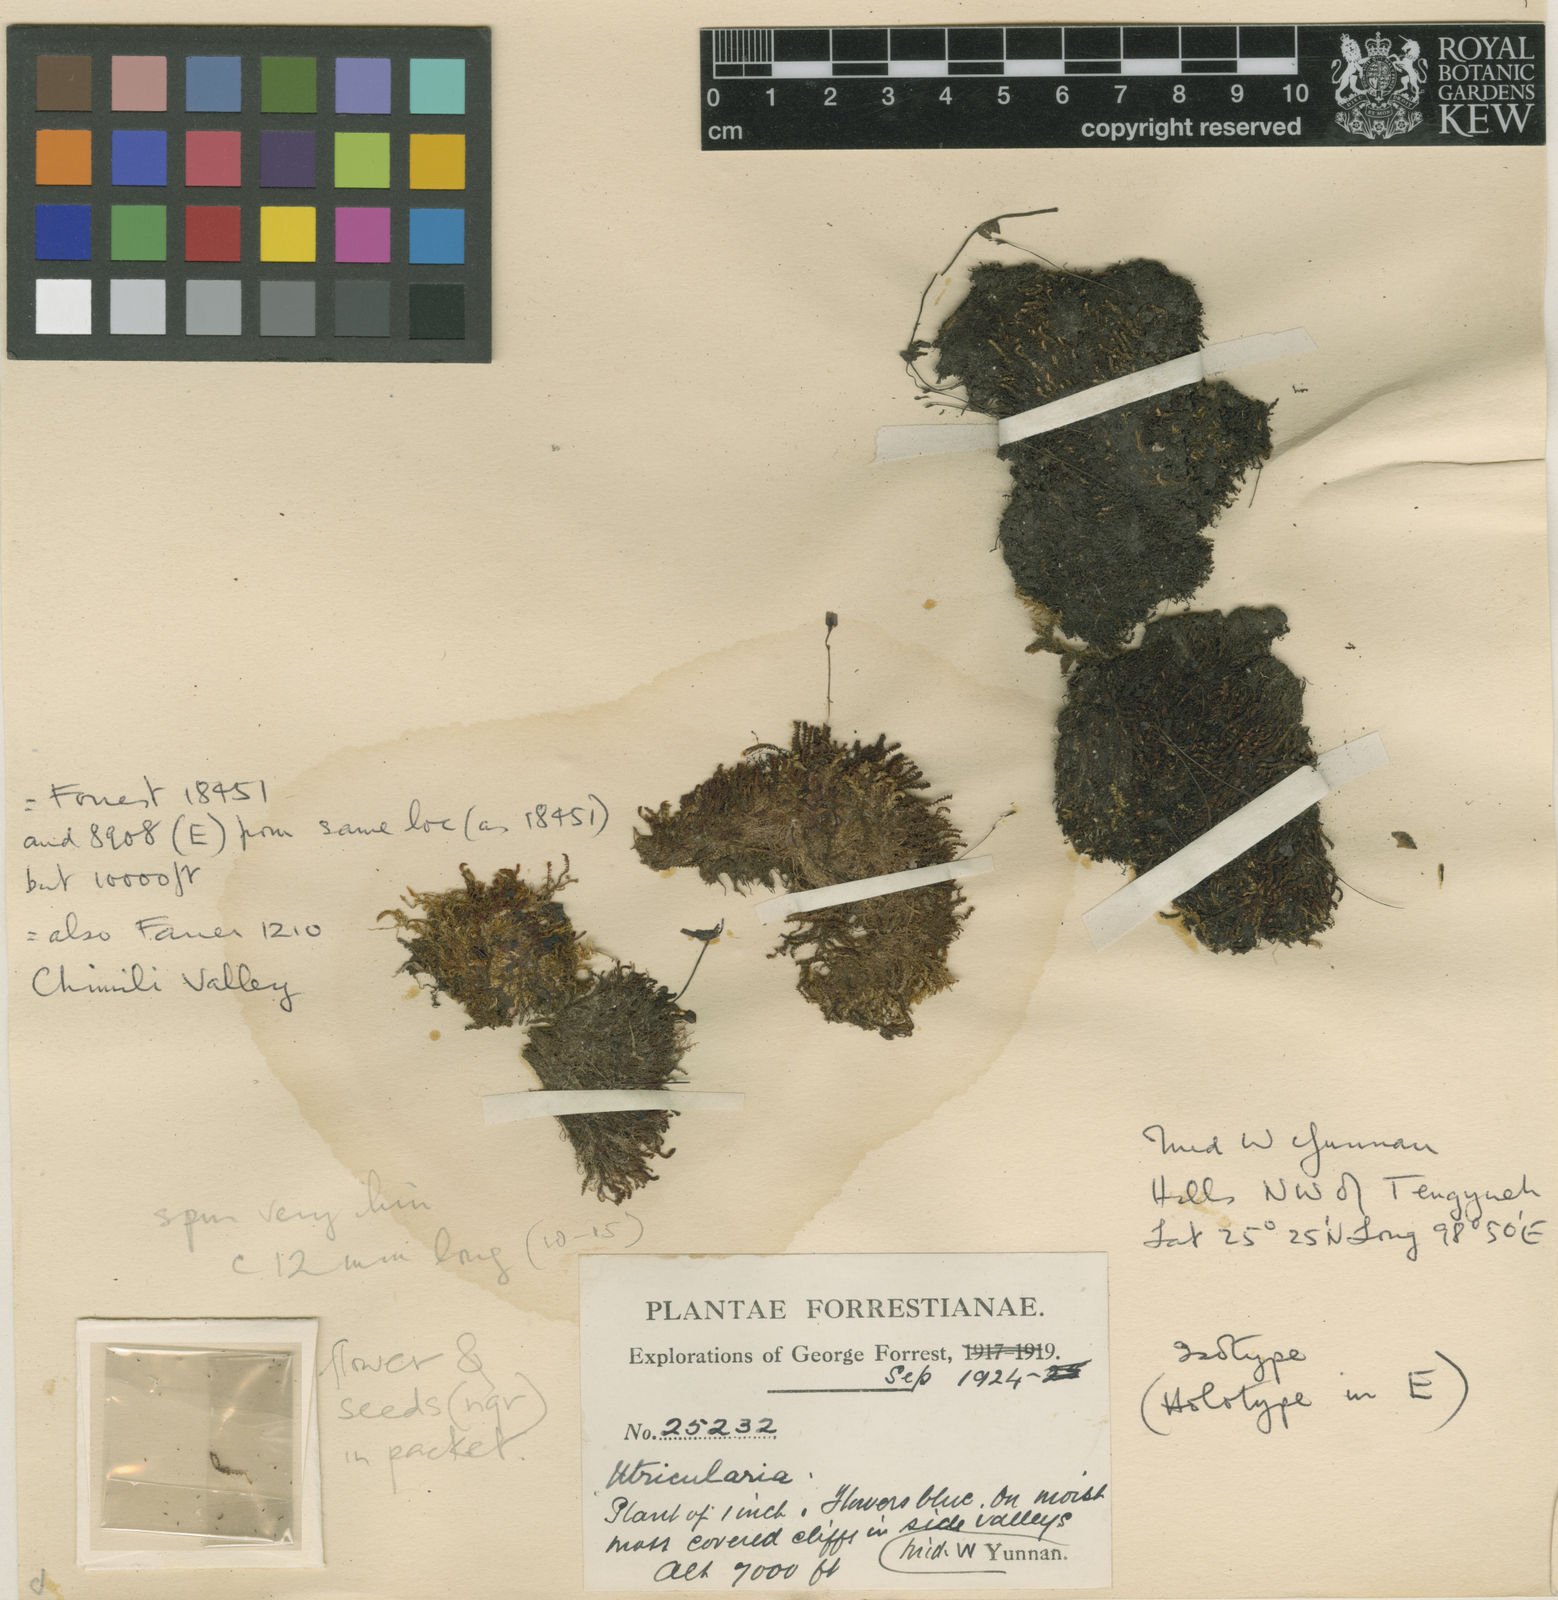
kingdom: Plantae
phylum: Tracheophyta
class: Magnoliopsida
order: Lamiales
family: Lentibulariaceae
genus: Utricularia
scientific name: Utricularia forrestii
